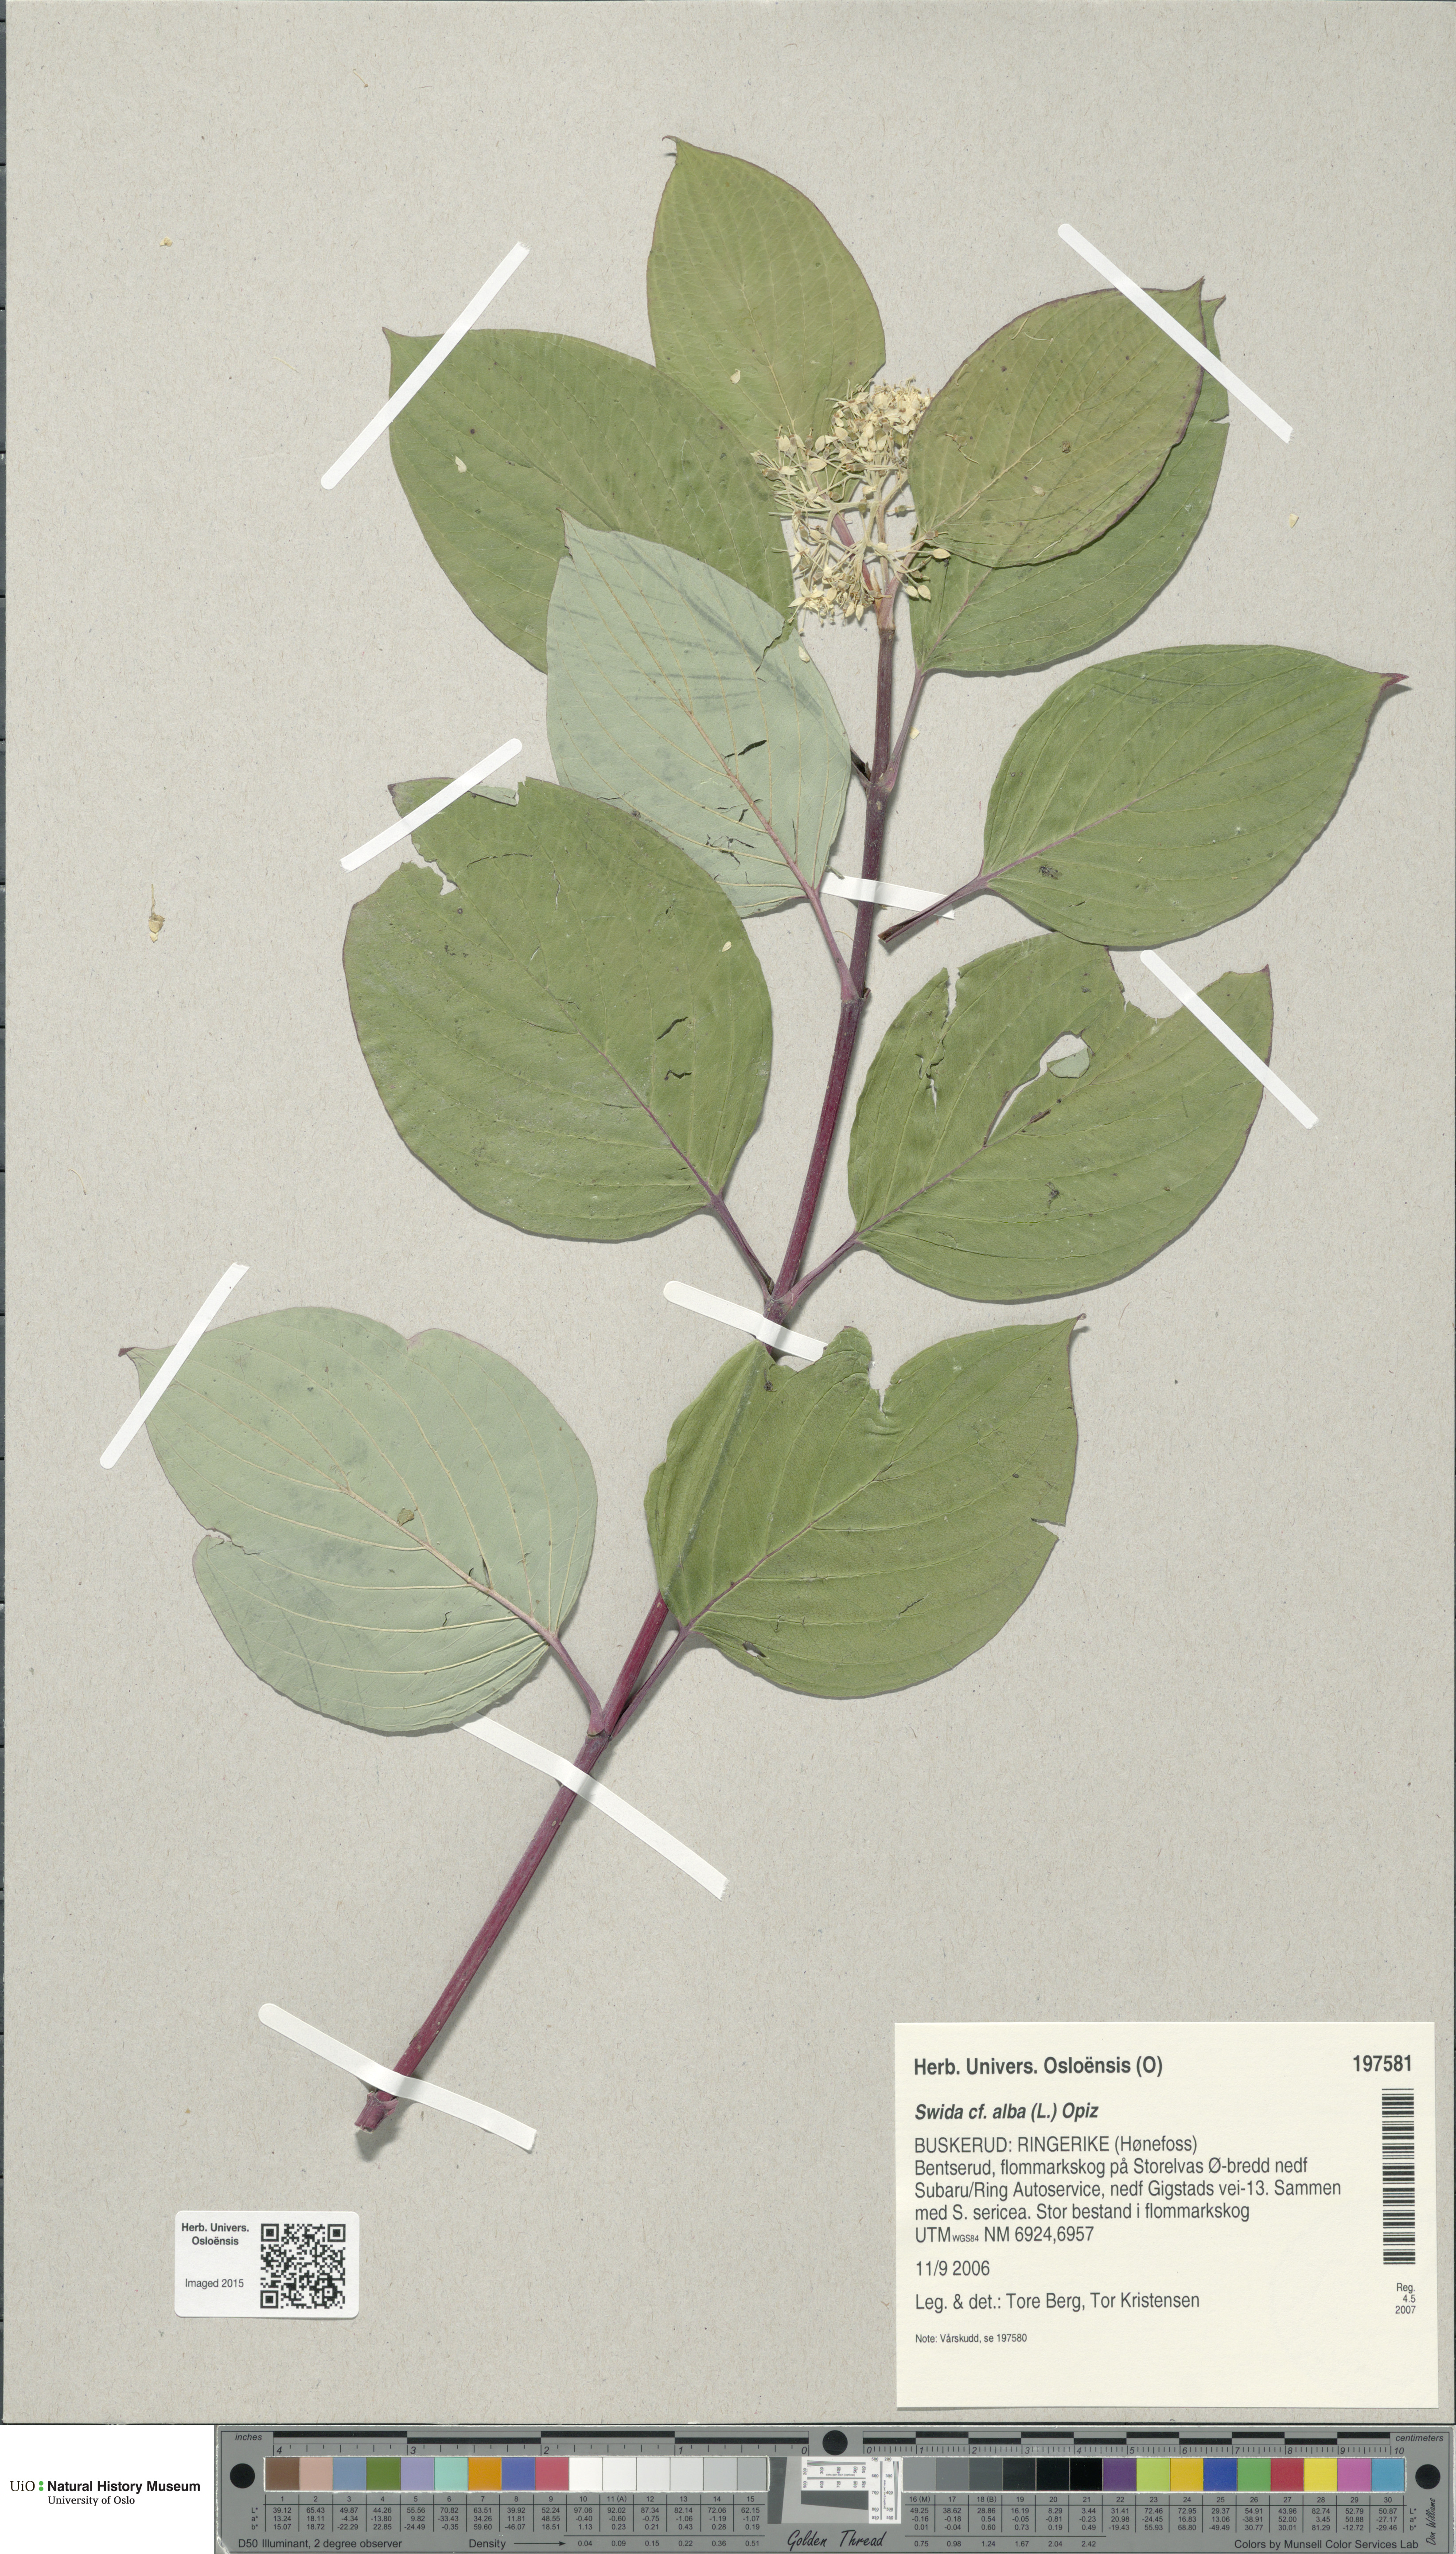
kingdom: Plantae
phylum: Tracheophyta
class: Magnoliopsida
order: Cornales
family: Cornaceae
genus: Cornus
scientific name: Cornus alba
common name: White dogwood
